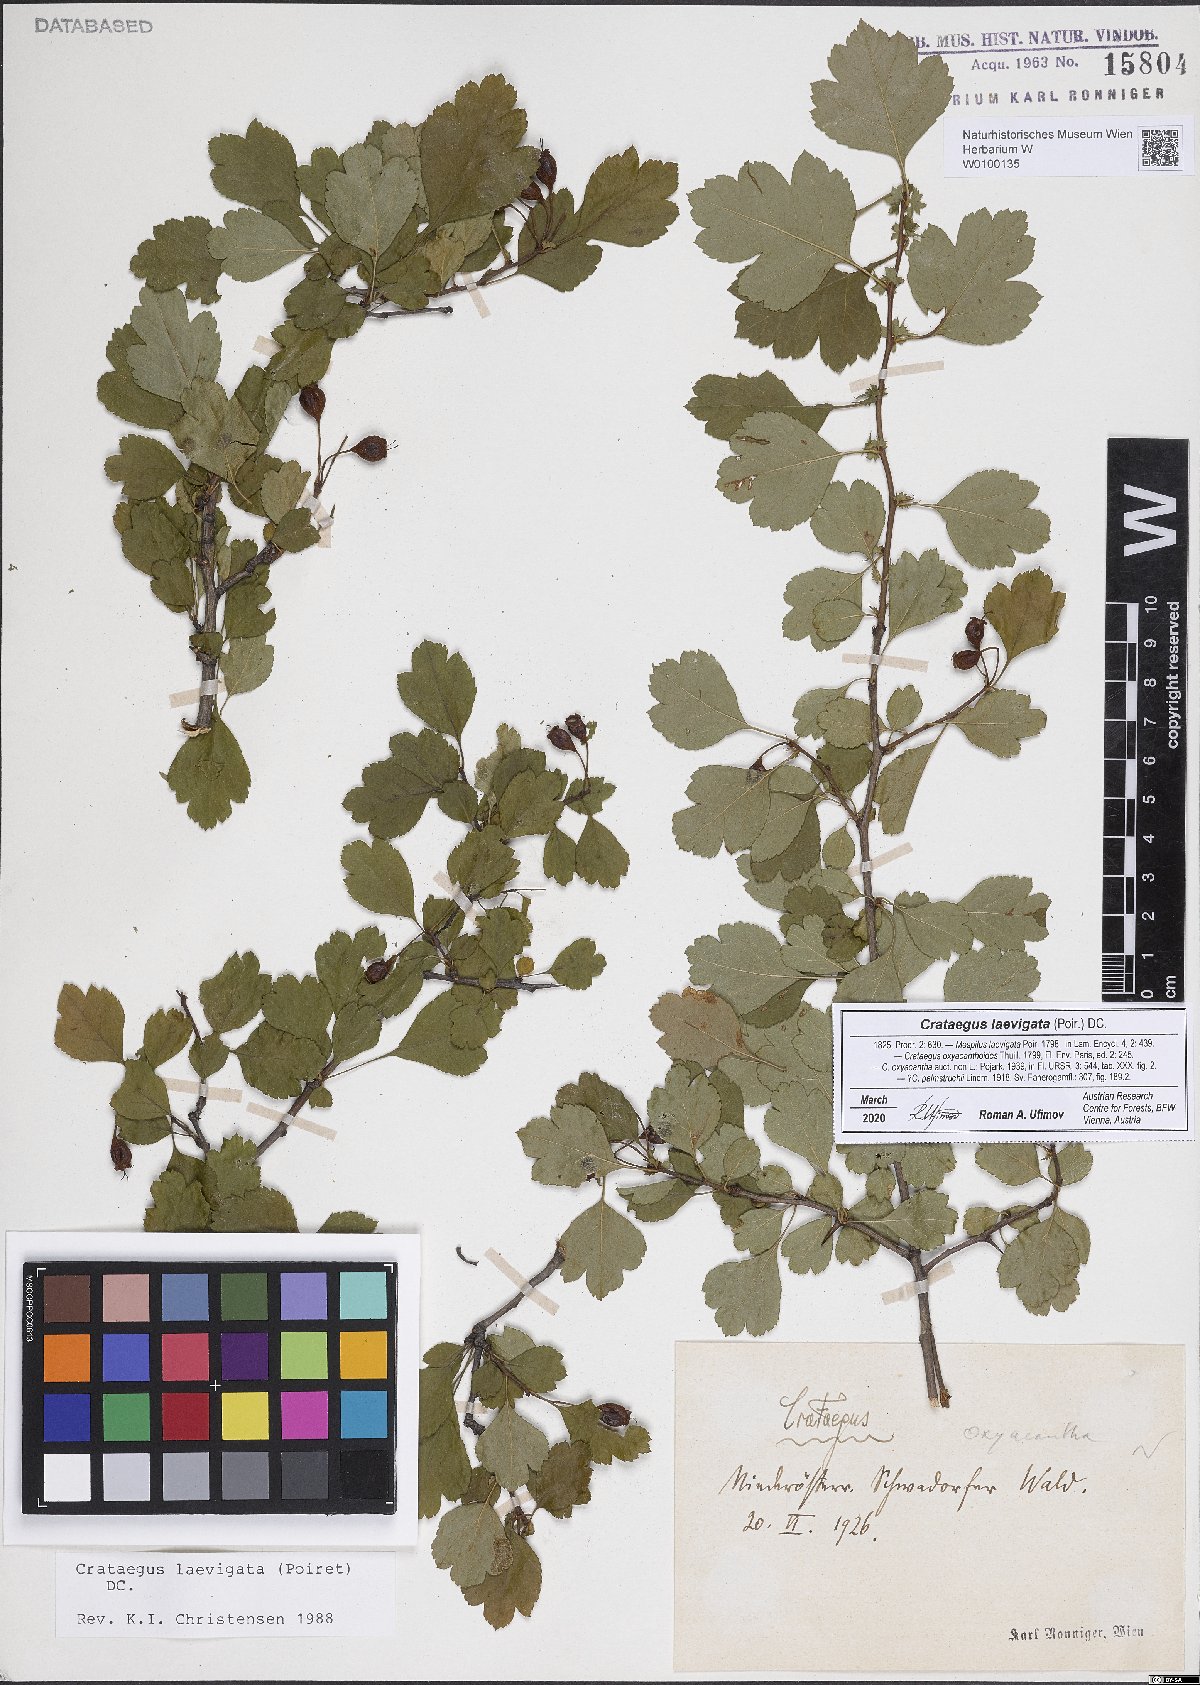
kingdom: Plantae
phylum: Tracheophyta
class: Magnoliopsida
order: Rosales
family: Rosaceae
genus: Crataegus
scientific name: Crataegus laevigata
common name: Midland hawthorn
